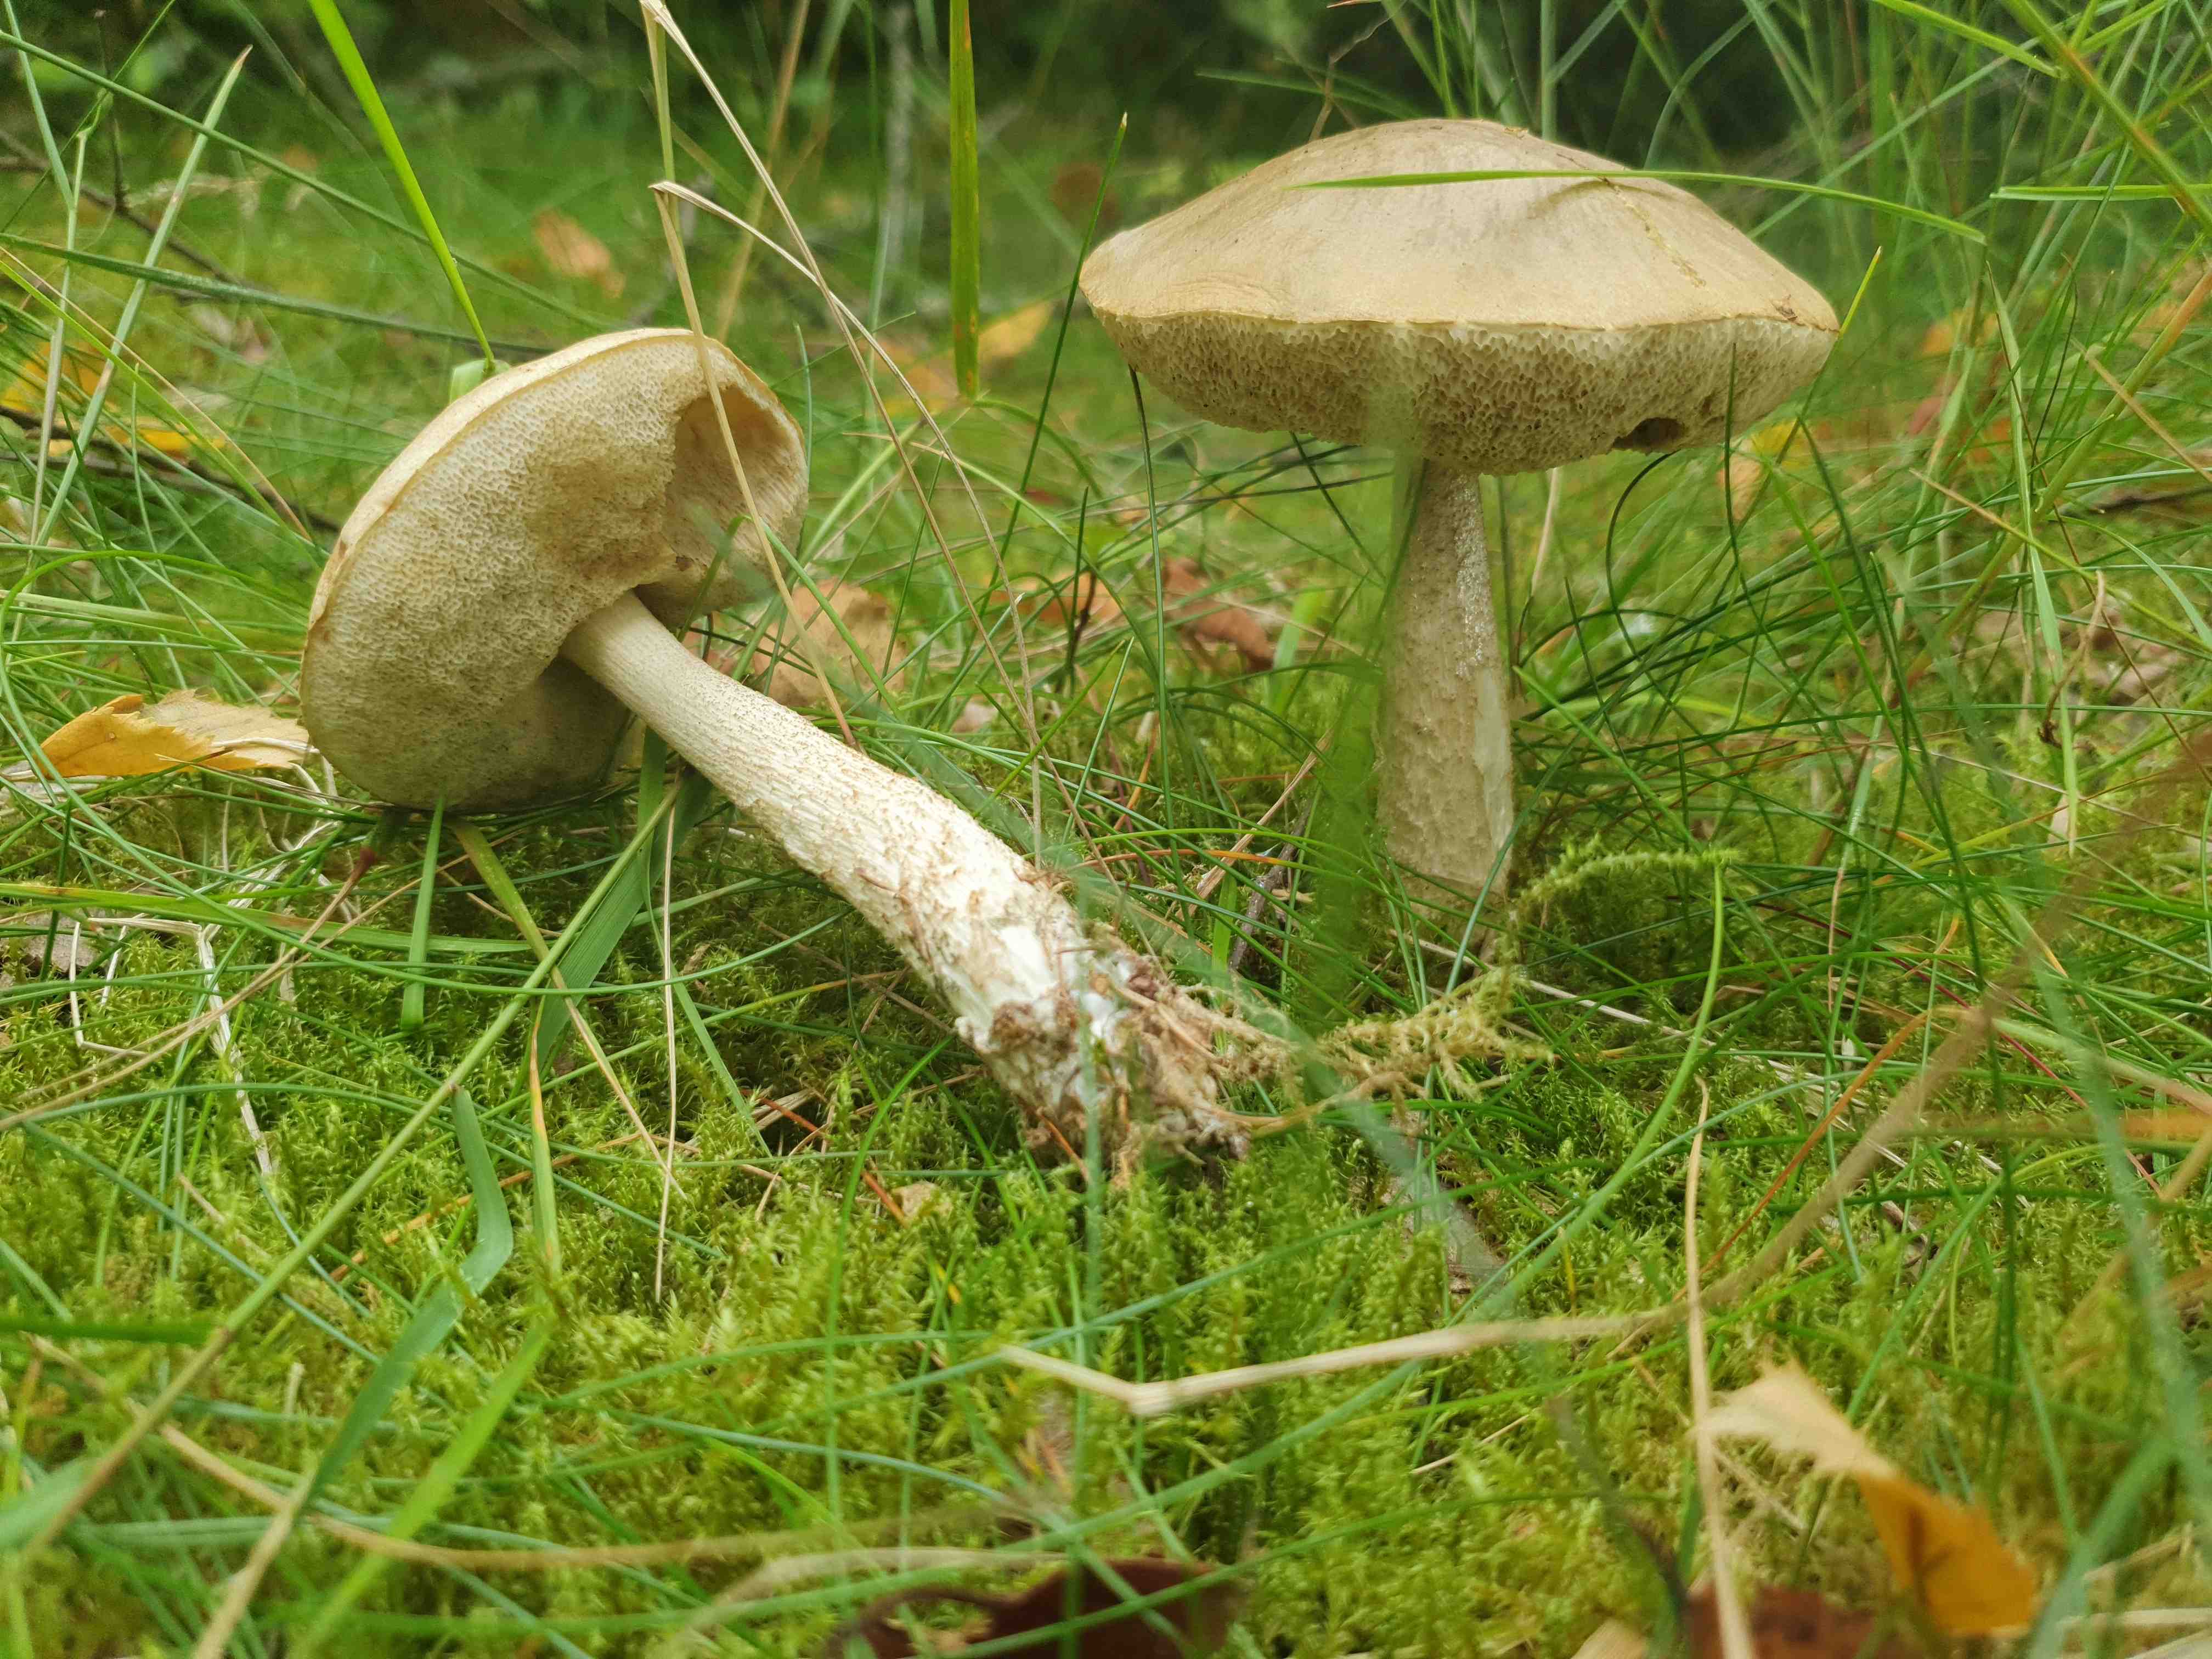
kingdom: Fungi
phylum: Basidiomycota
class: Agaricomycetes
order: Boletales
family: Boletaceae
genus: Leccinum
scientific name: Leccinum
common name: skælrørhat
